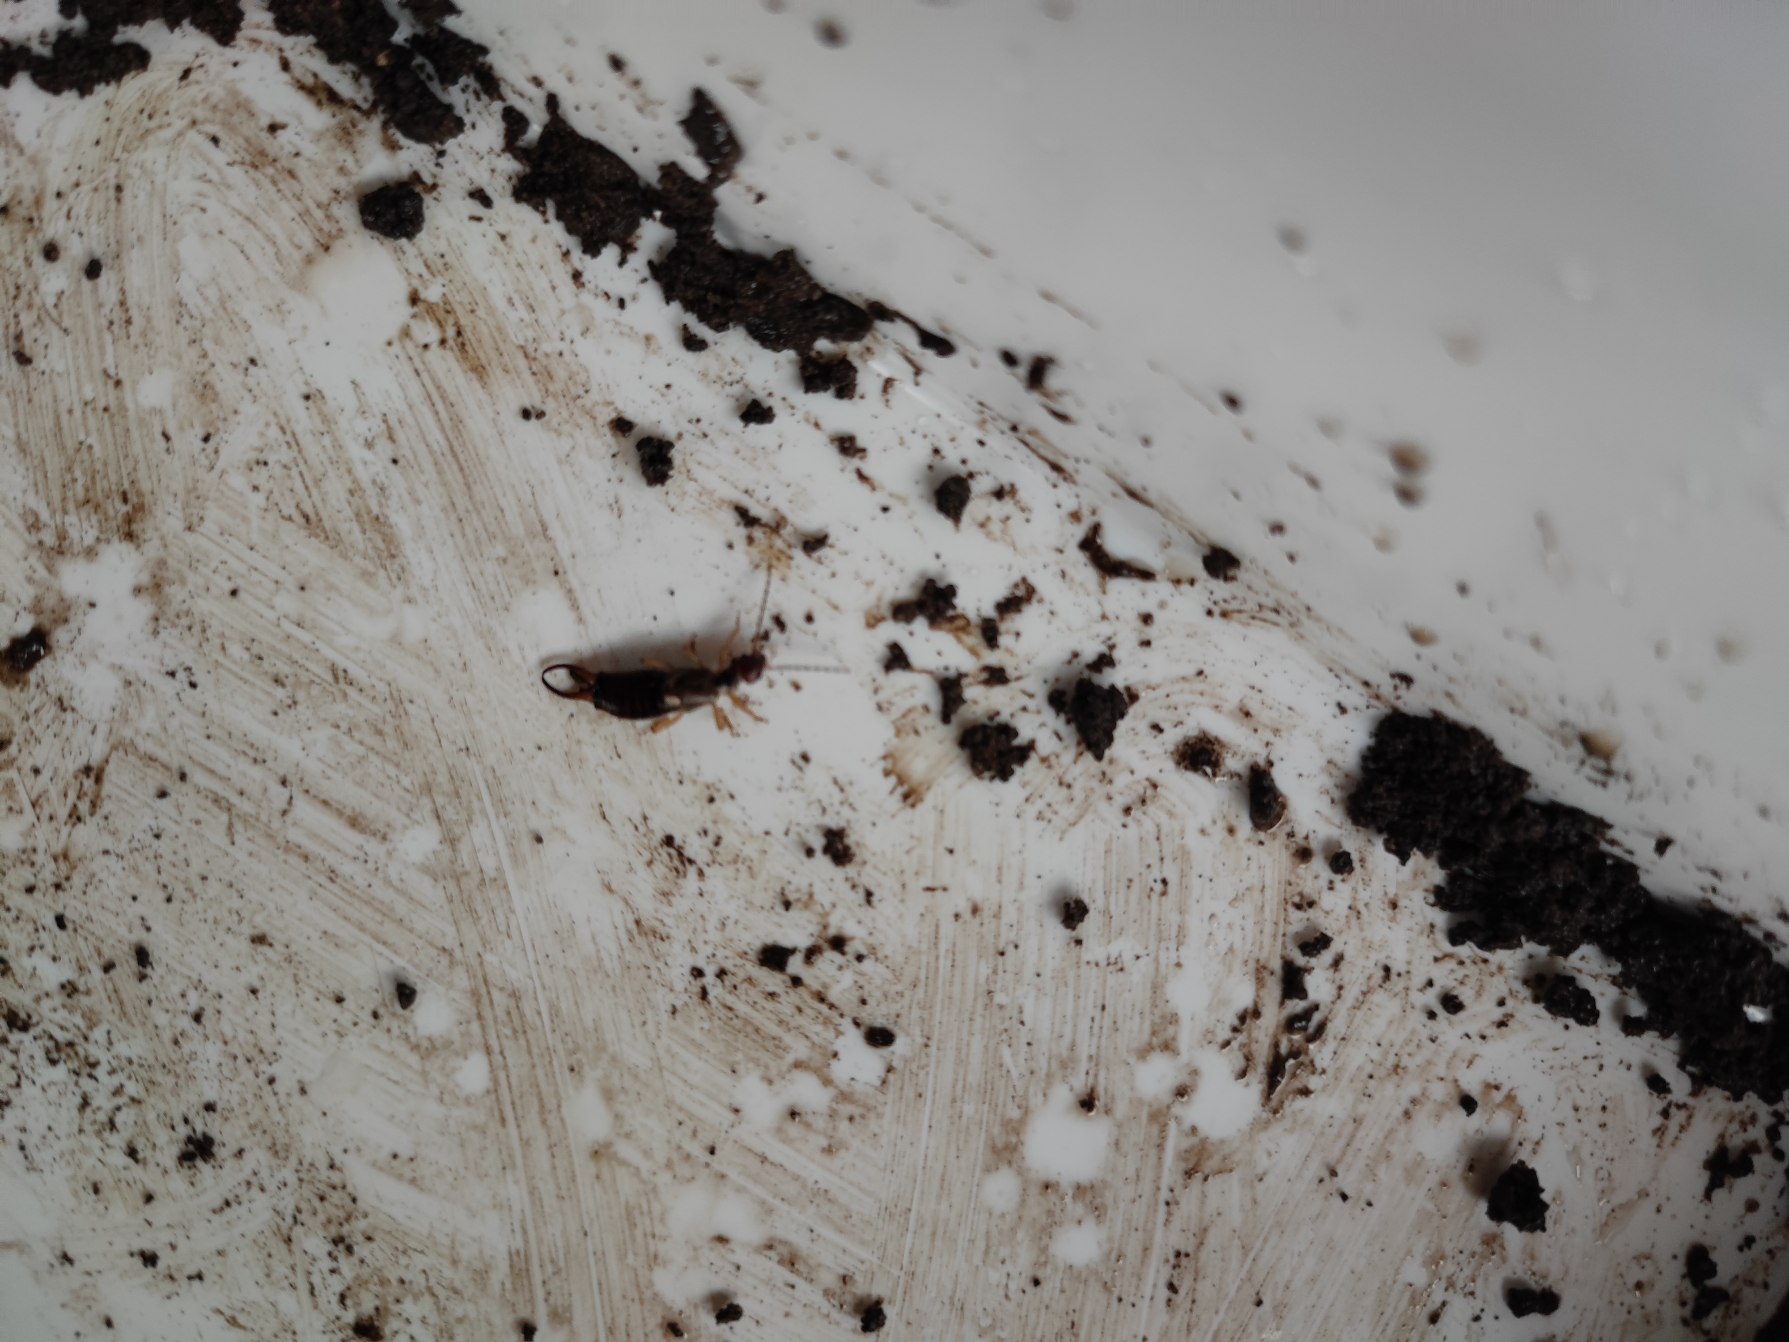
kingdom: Animalia
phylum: Arthropoda
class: Insecta
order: Dermaptera
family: Forficulidae
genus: Forficula
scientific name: Forficula auricularia
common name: Almindelig ørentvist
